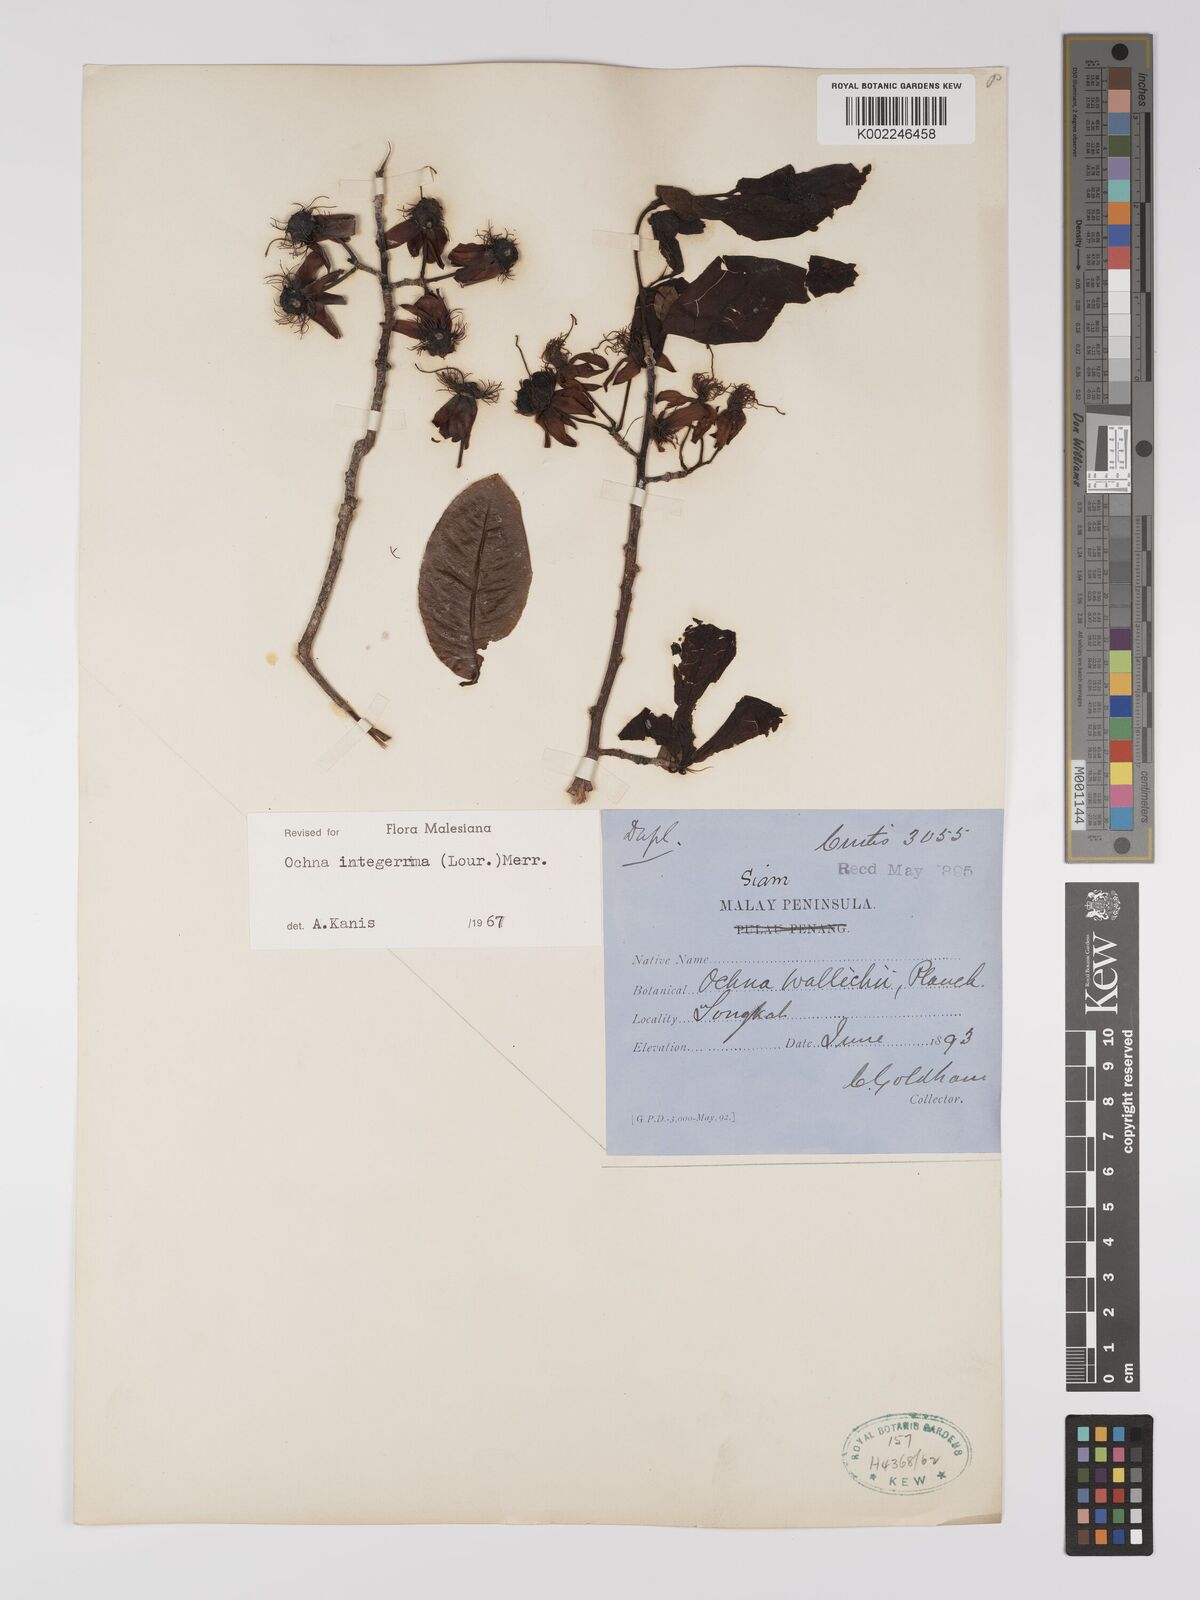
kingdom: Plantae
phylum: Tracheophyta
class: Magnoliopsida
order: Malpighiales
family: Ochnaceae
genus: Ochna
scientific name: Ochna integerrima
